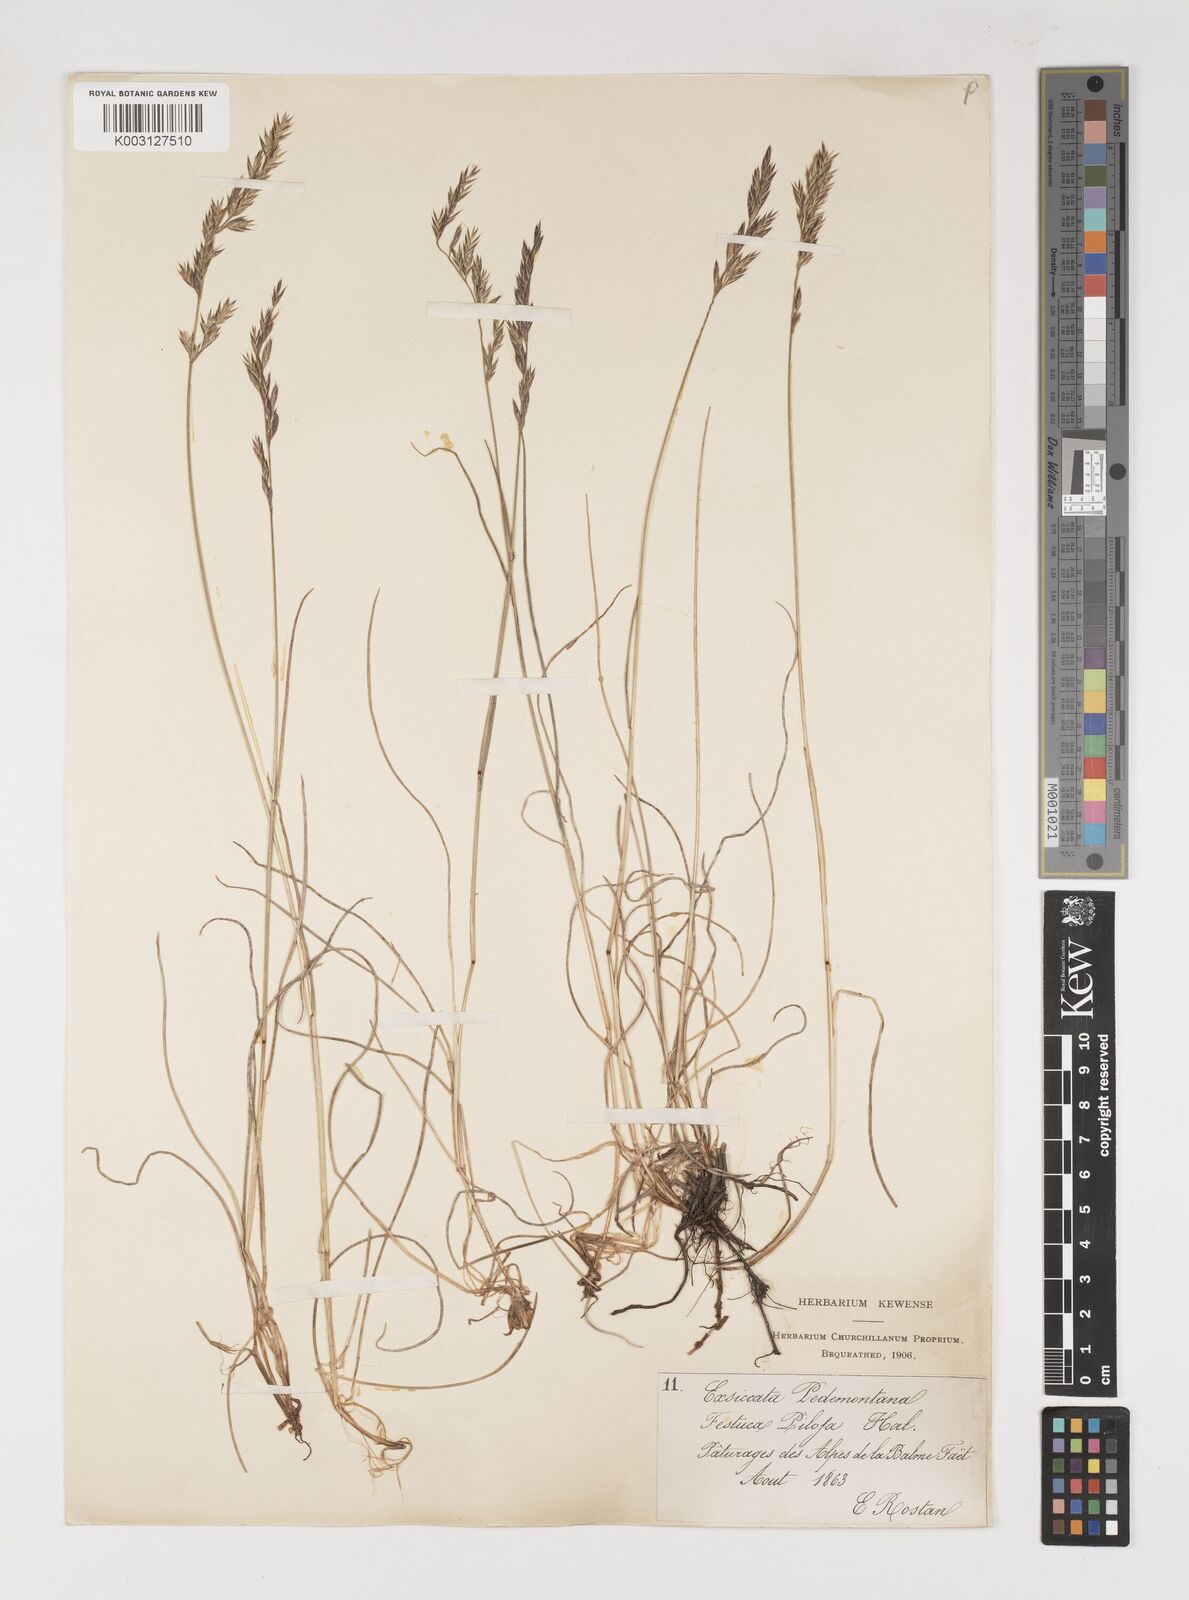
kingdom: Plantae
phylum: Tracheophyta
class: Liliopsida
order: Poales
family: Poaceae
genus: Bellardiochloa
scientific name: Bellardiochloa variegata
